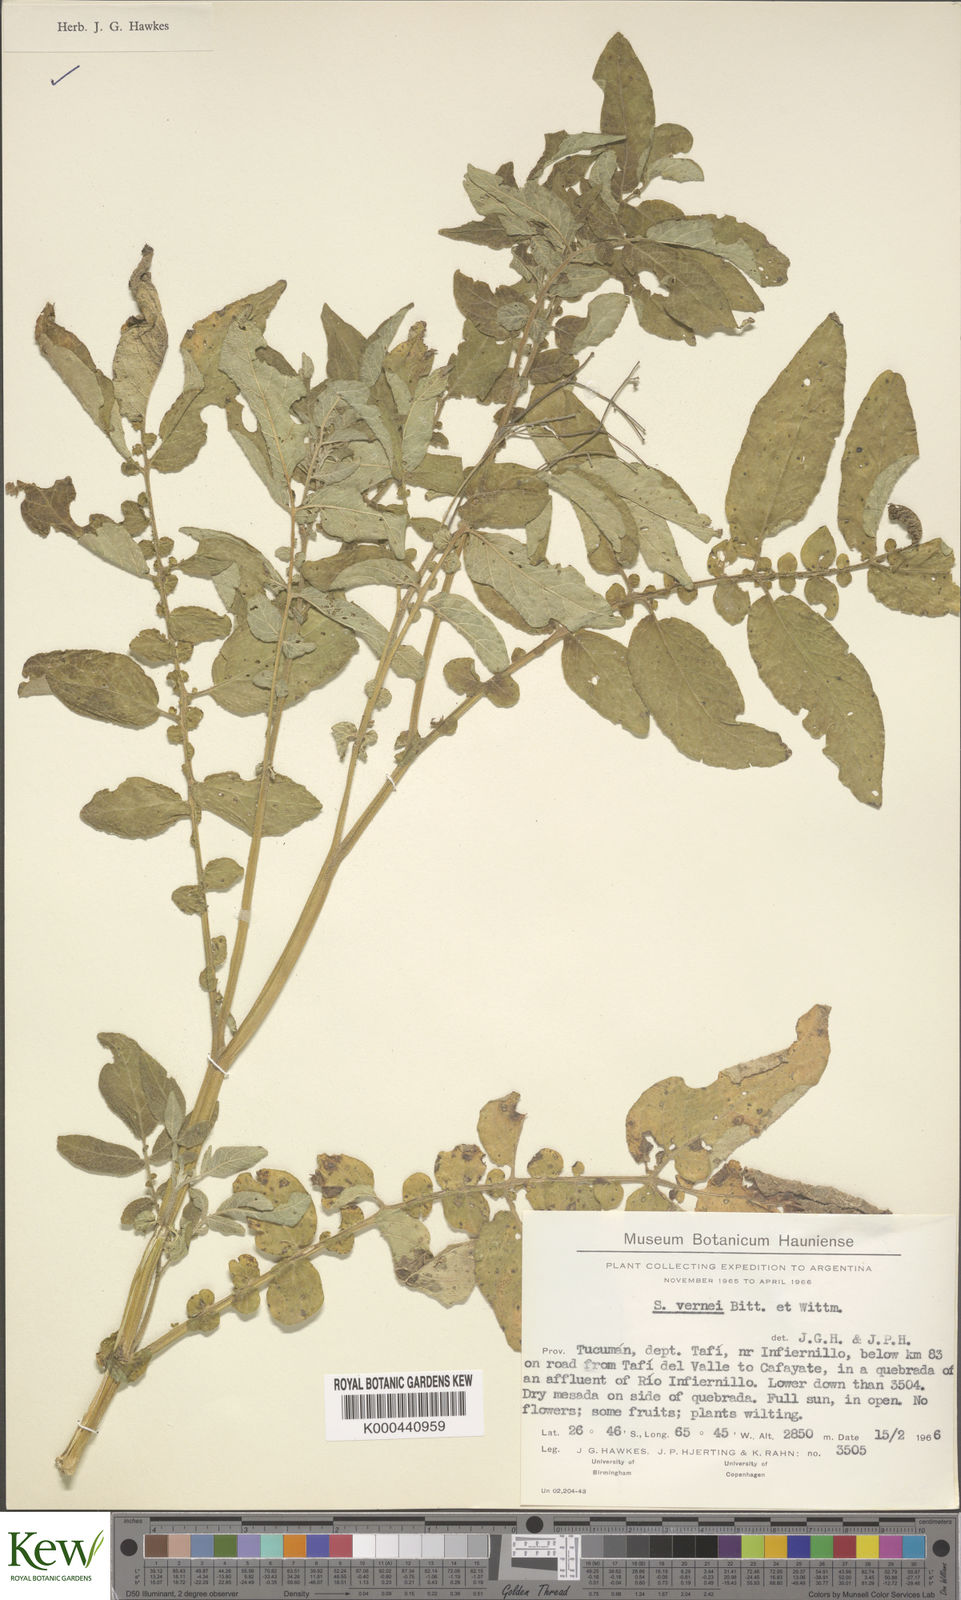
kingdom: Plantae
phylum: Tracheophyta
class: Magnoliopsida
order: Solanales
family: Solanaceae
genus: Solanum
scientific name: Solanum vernei
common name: Purple potato
